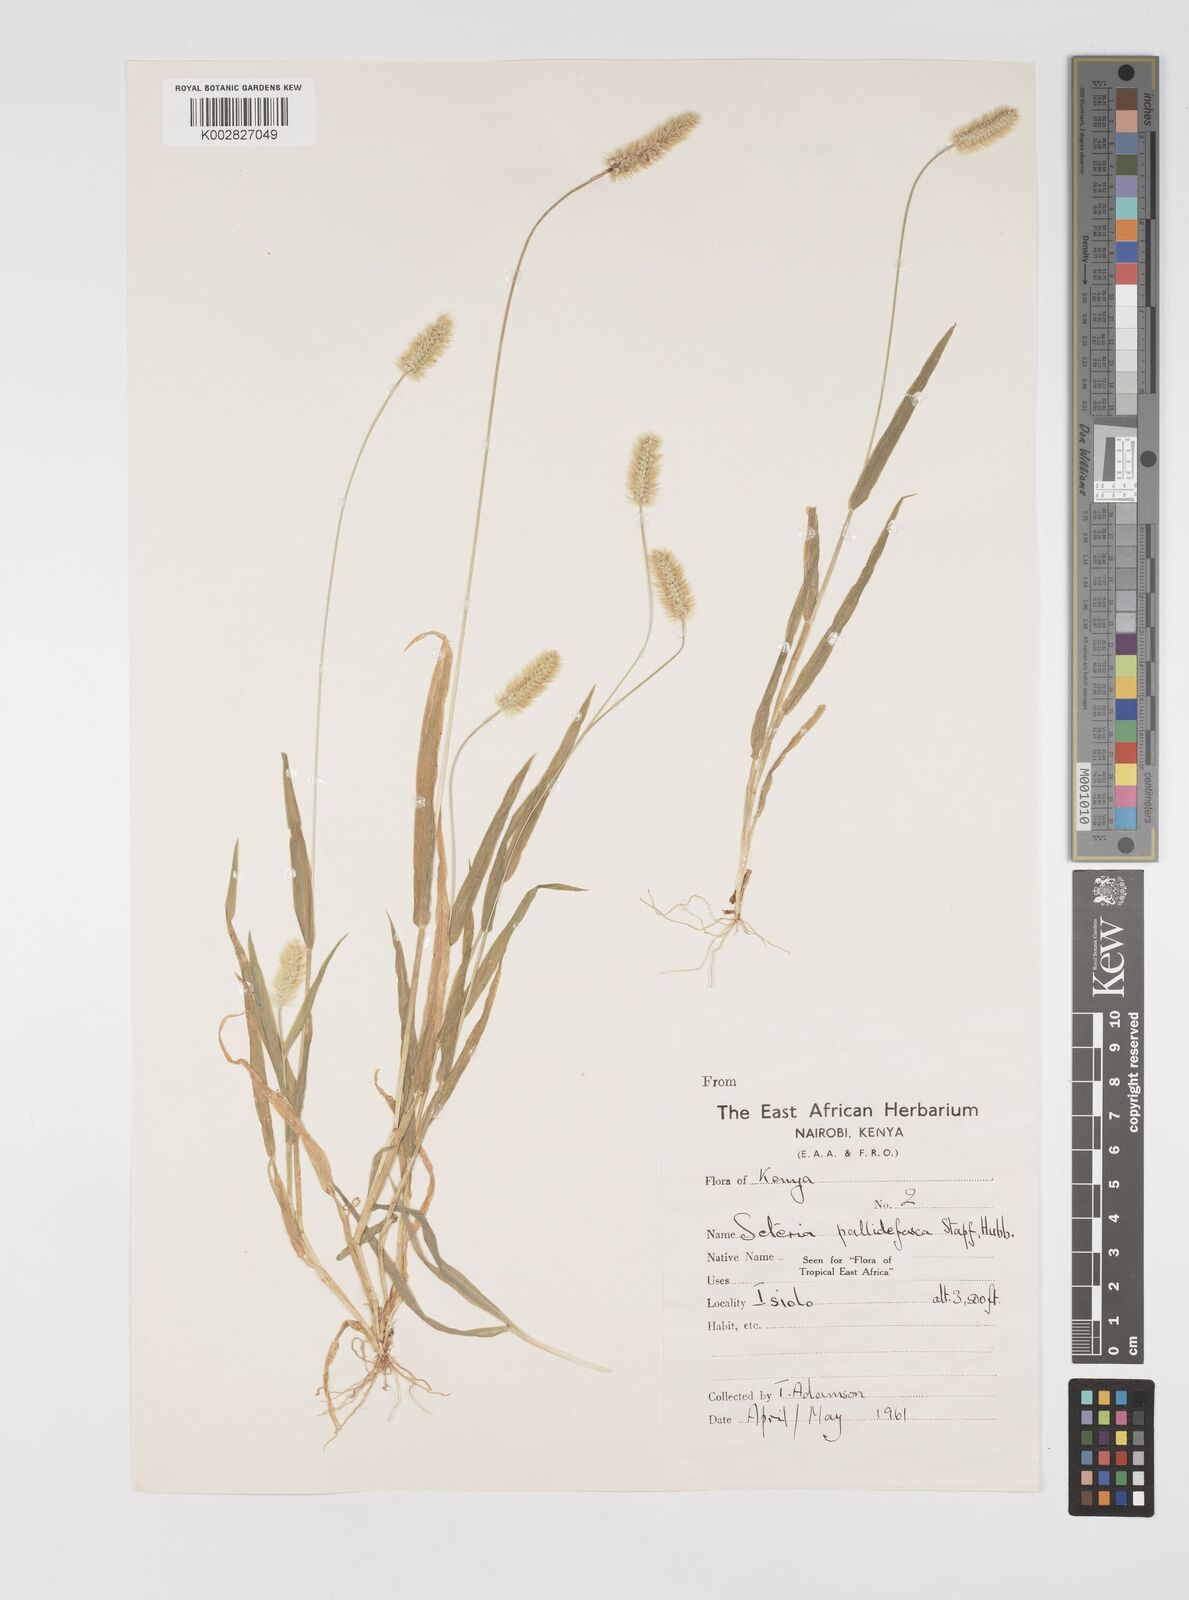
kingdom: Plantae
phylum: Tracheophyta
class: Liliopsida
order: Poales
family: Poaceae
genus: Setaria
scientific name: Setaria pumila
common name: Yellow bristle-grass
